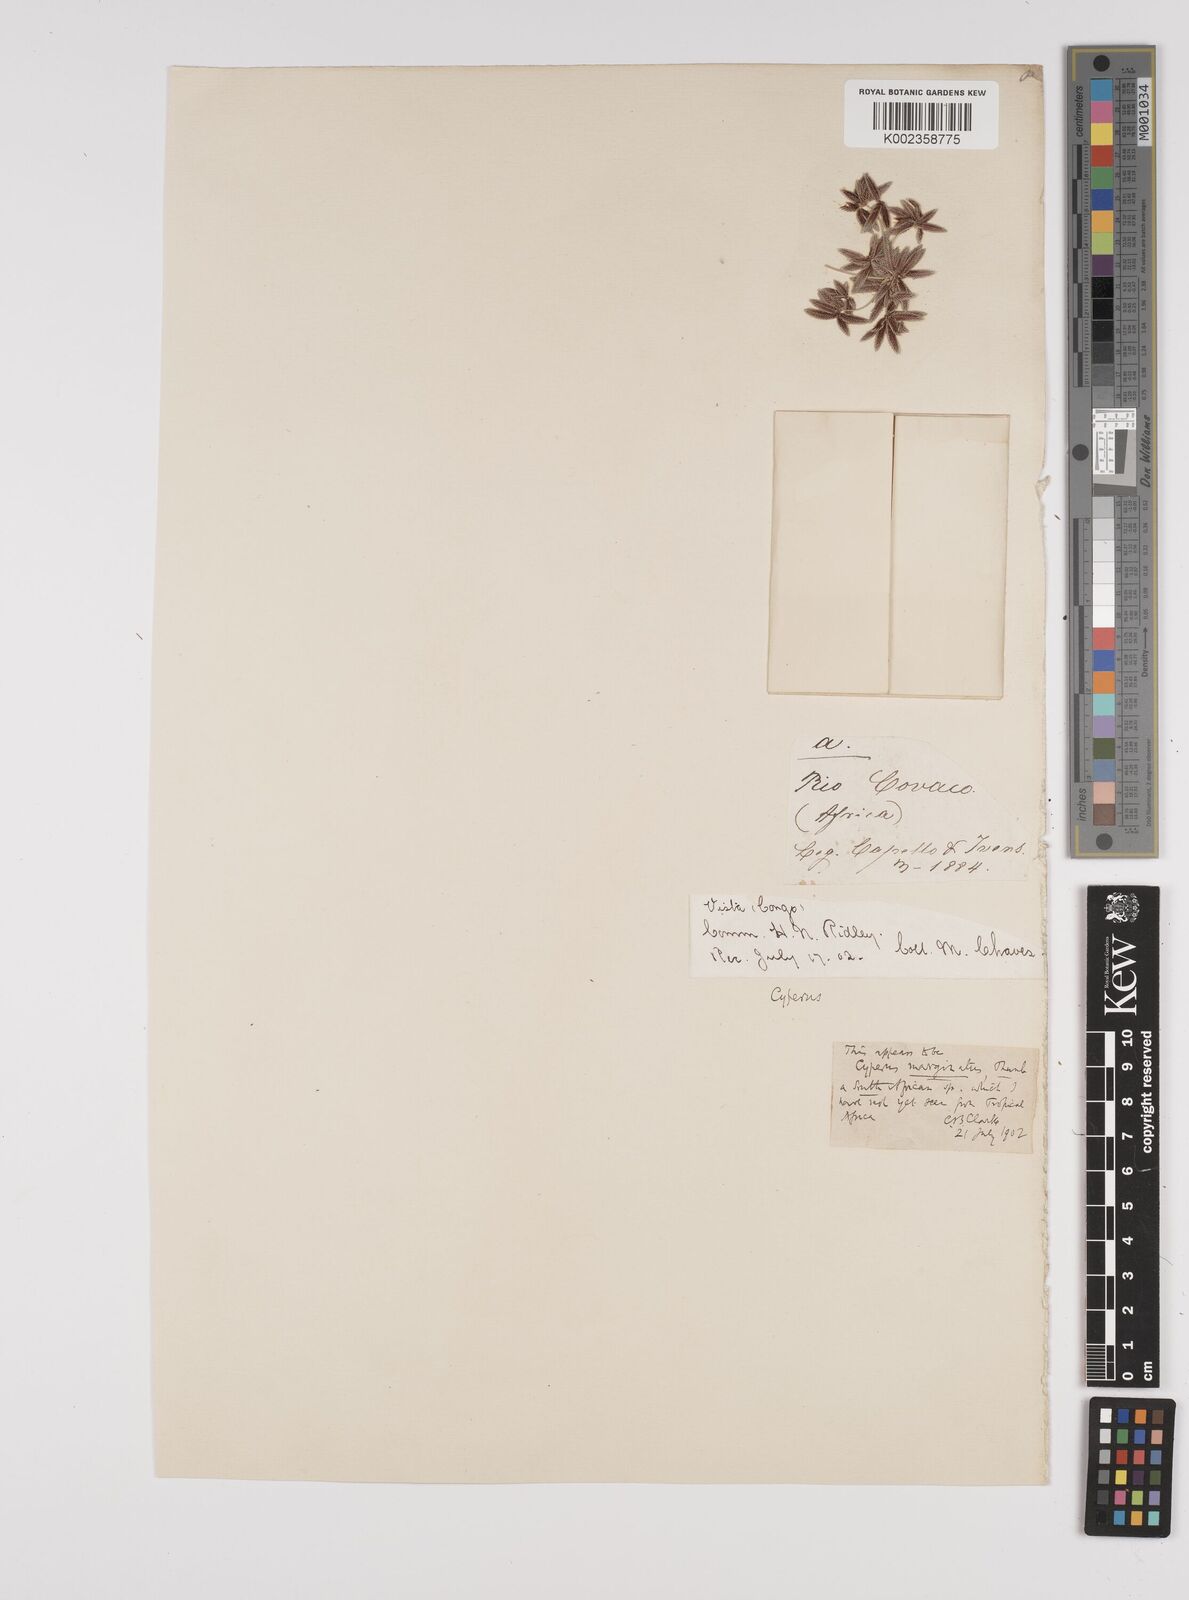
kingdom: Plantae
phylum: Tracheophyta
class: Liliopsida
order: Poales
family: Cyperaceae
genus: Cyperus
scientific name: Cyperus marginatus
